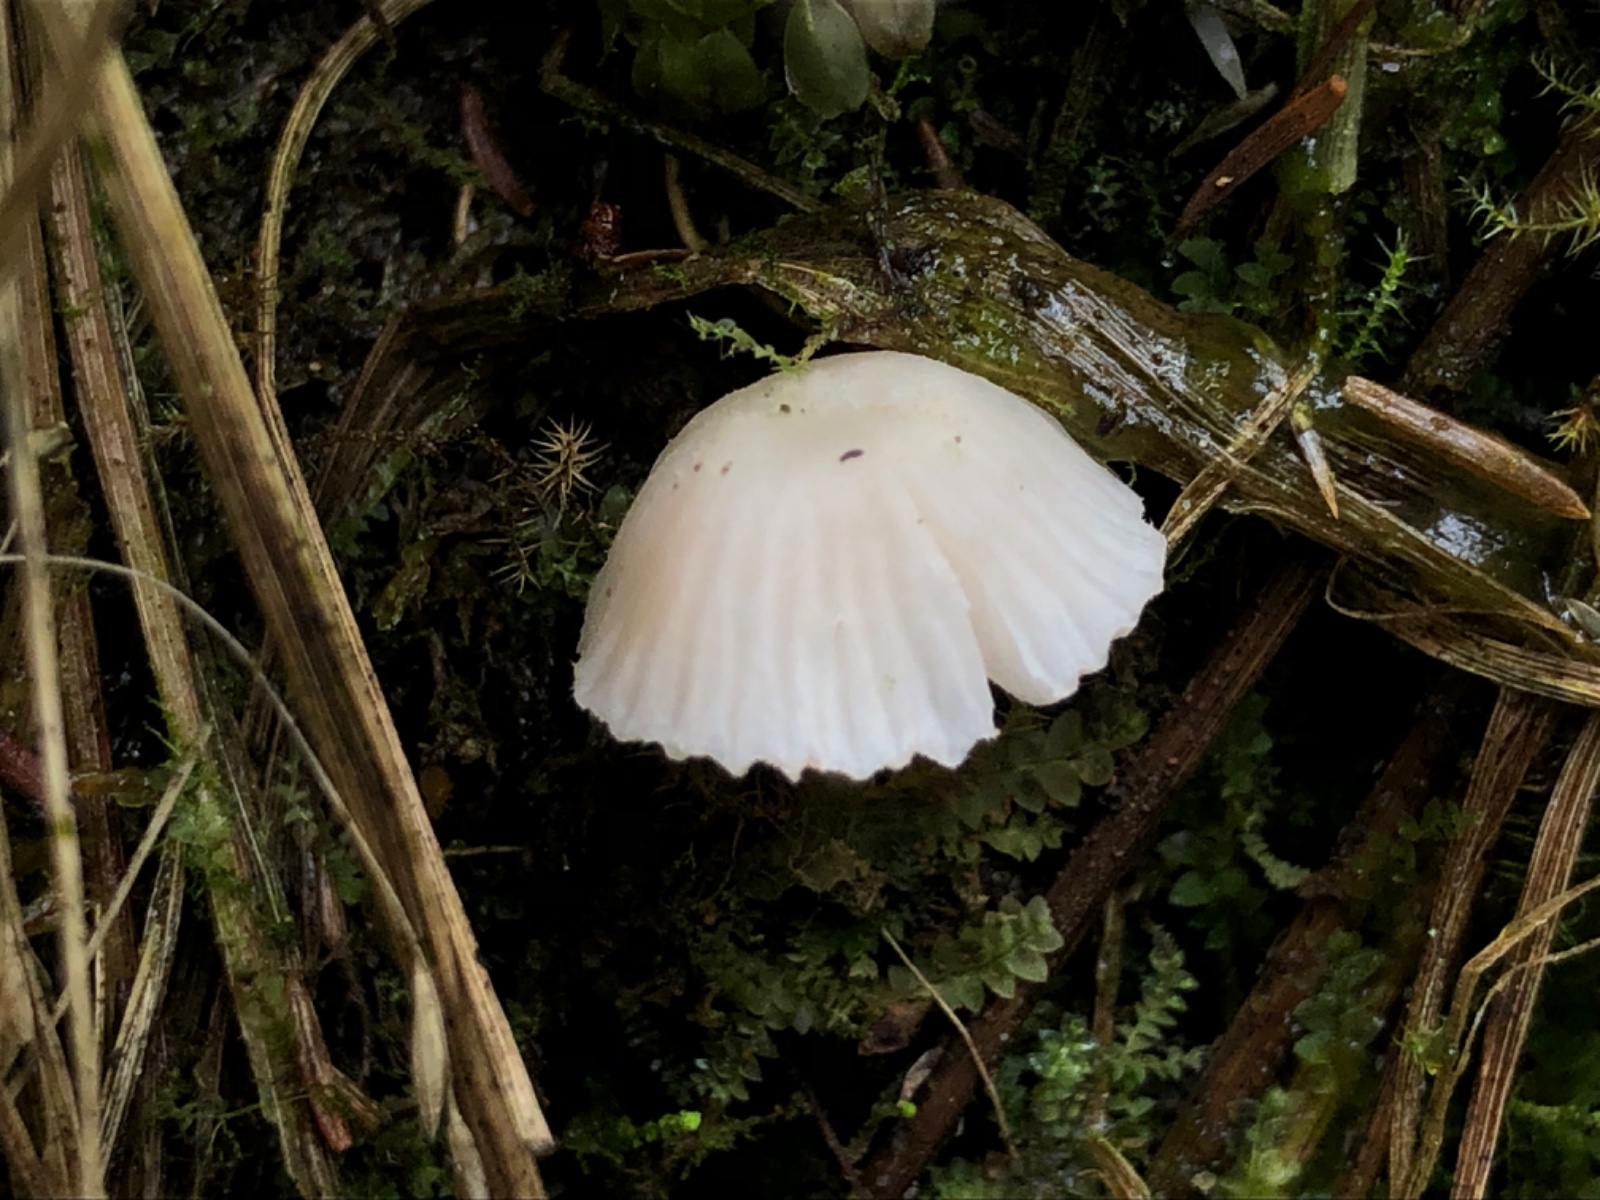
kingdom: Fungi
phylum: Basidiomycota
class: Agaricomycetes
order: Agaricales
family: Entolomataceae
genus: Entoloma
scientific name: Entoloma
